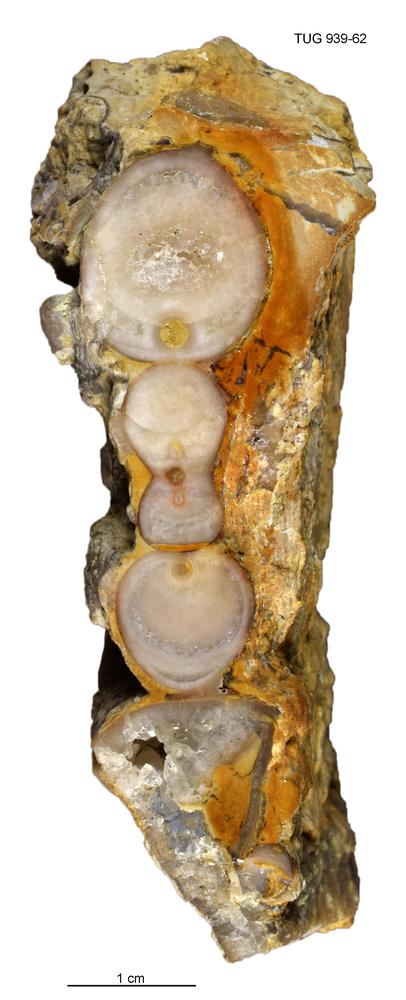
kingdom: Animalia
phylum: Mollusca
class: Cephalopoda
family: Trocholitidae
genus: Discoceras
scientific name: Discoceras Schroederoceras vasalemmense
